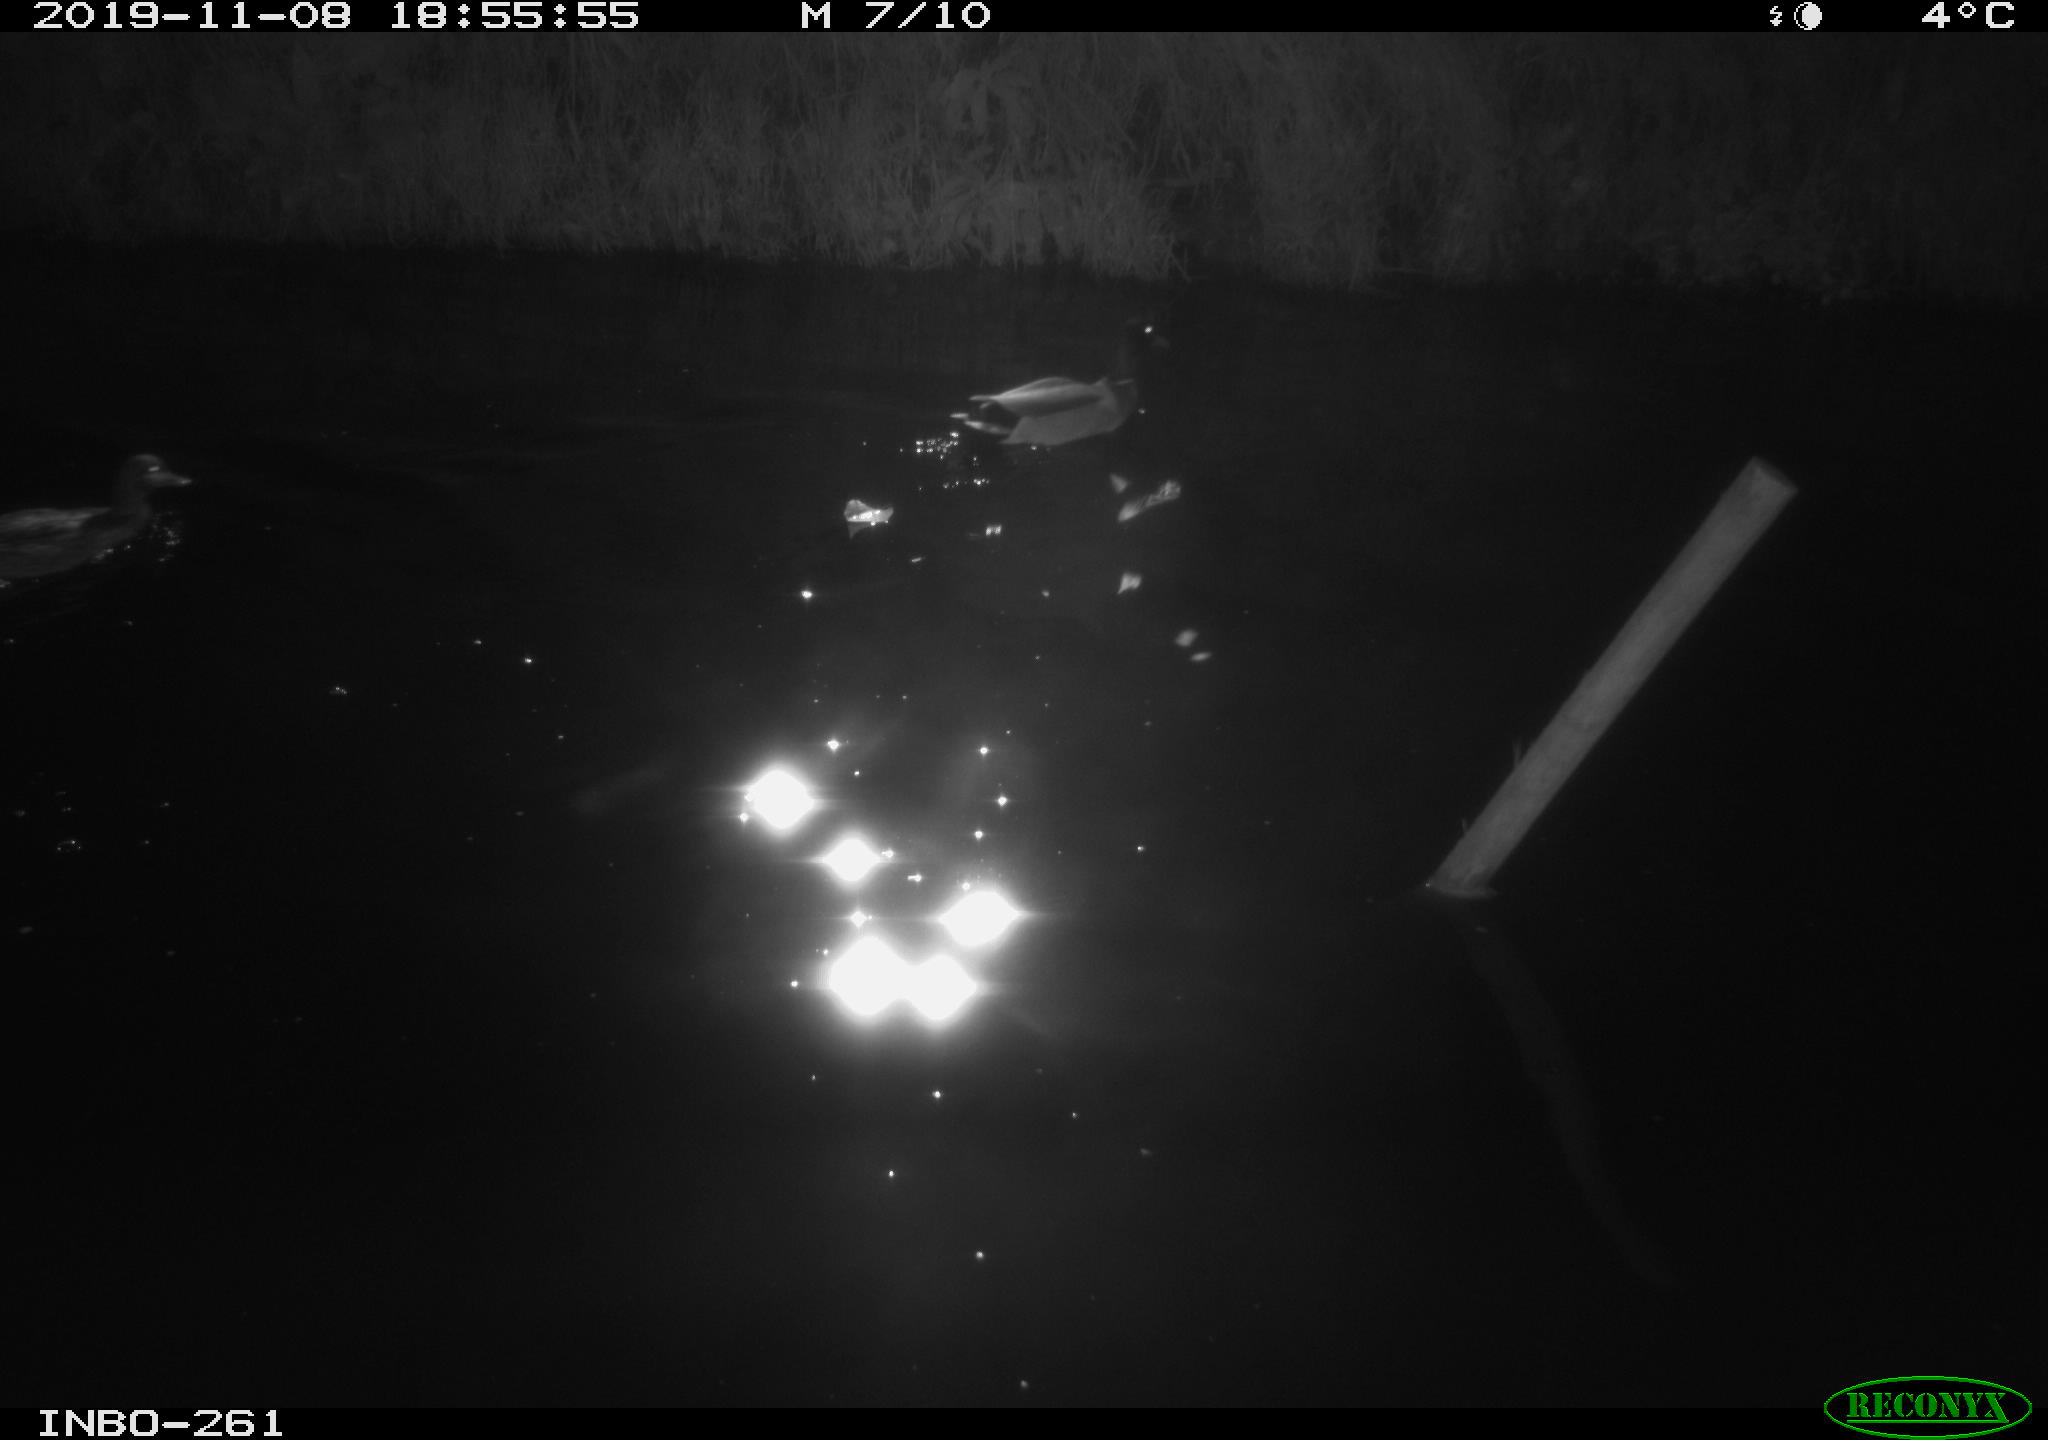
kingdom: Animalia
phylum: Chordata
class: Aves
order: Anseriformes
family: Anatidae
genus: Anas
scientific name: Anas platyrhynchos
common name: Mallard
